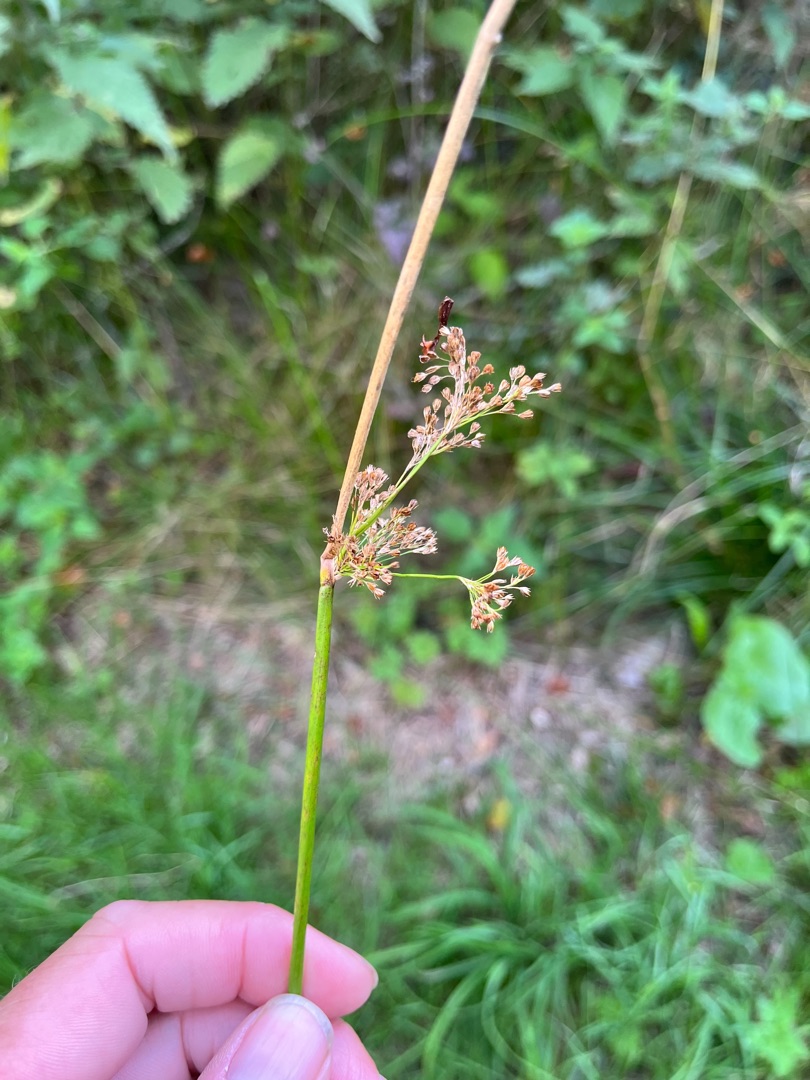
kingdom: Plantae
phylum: Tracheophyta
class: Liliopsida
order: Poales
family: Juncaceae
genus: Juncus
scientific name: Juncus effusus
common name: Lyse-siv
